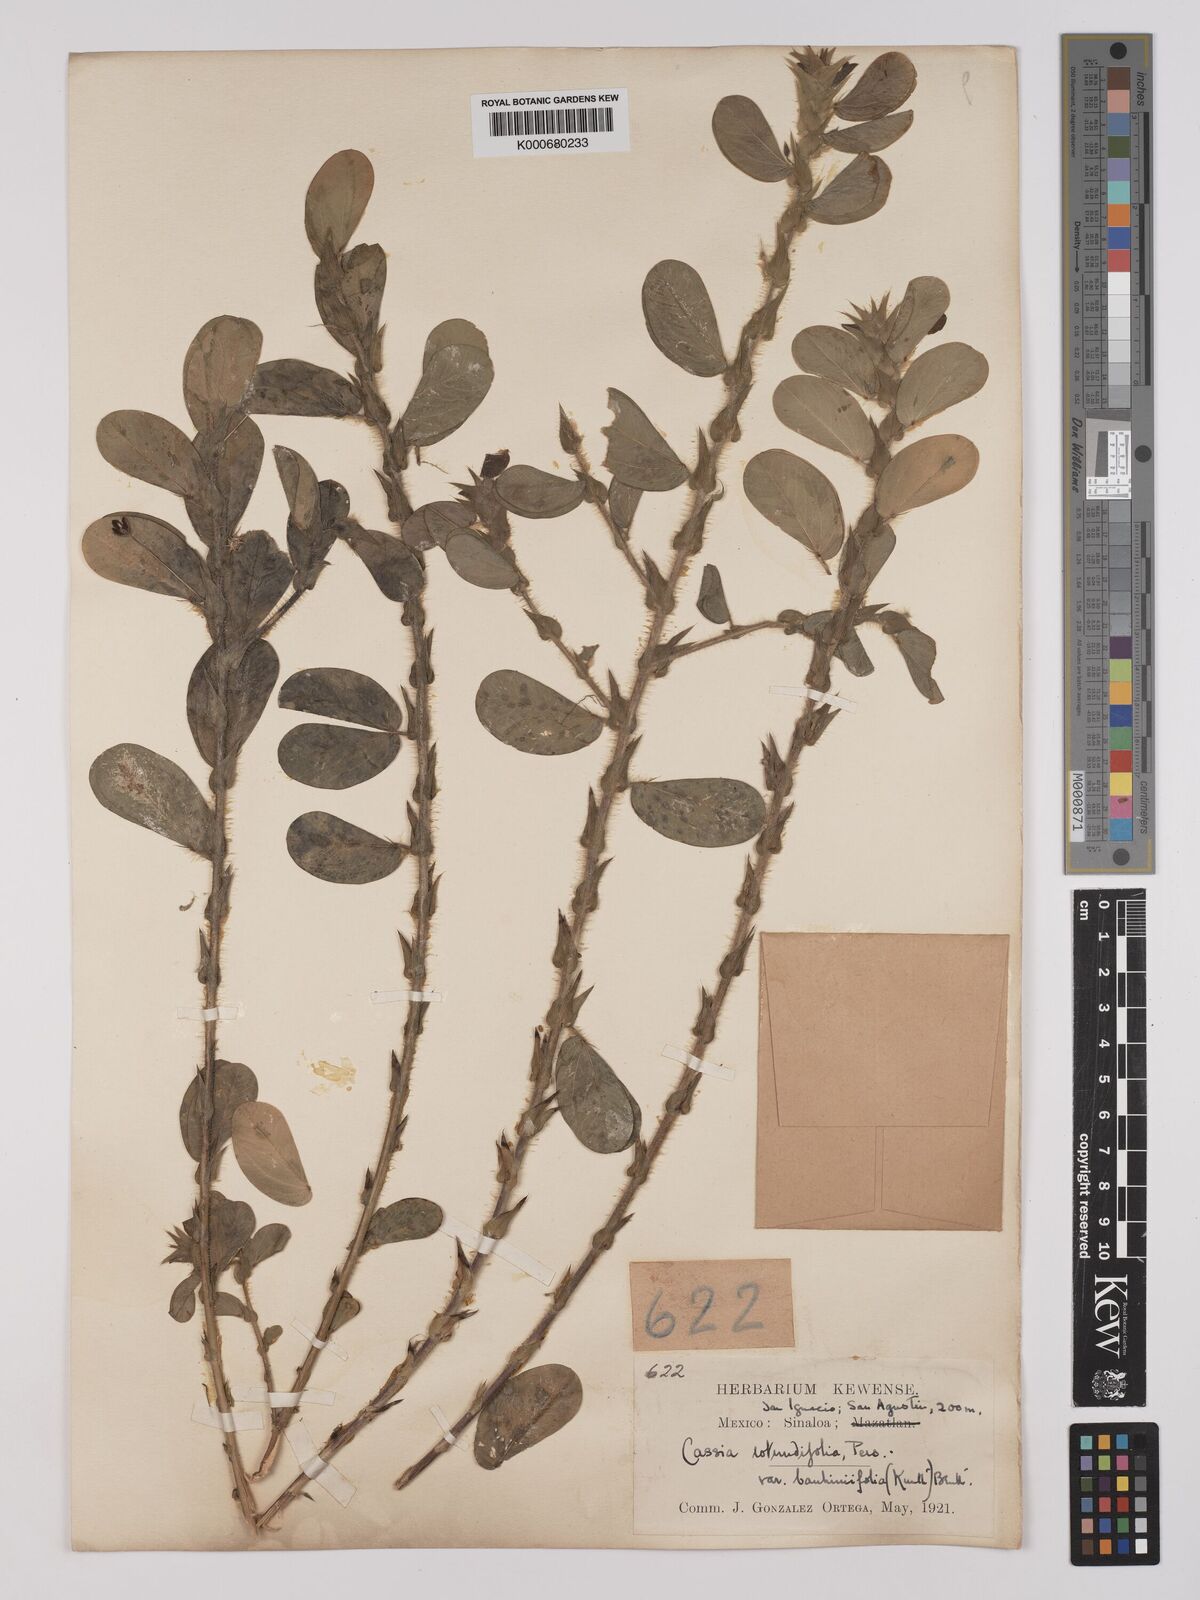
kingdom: Plantae
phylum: Tracheophyta
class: Magnoliopsida
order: Fabales
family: Fabaceae
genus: Chamaecrista
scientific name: Chamaecrista rotundifolia
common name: Round-leaf cassia
